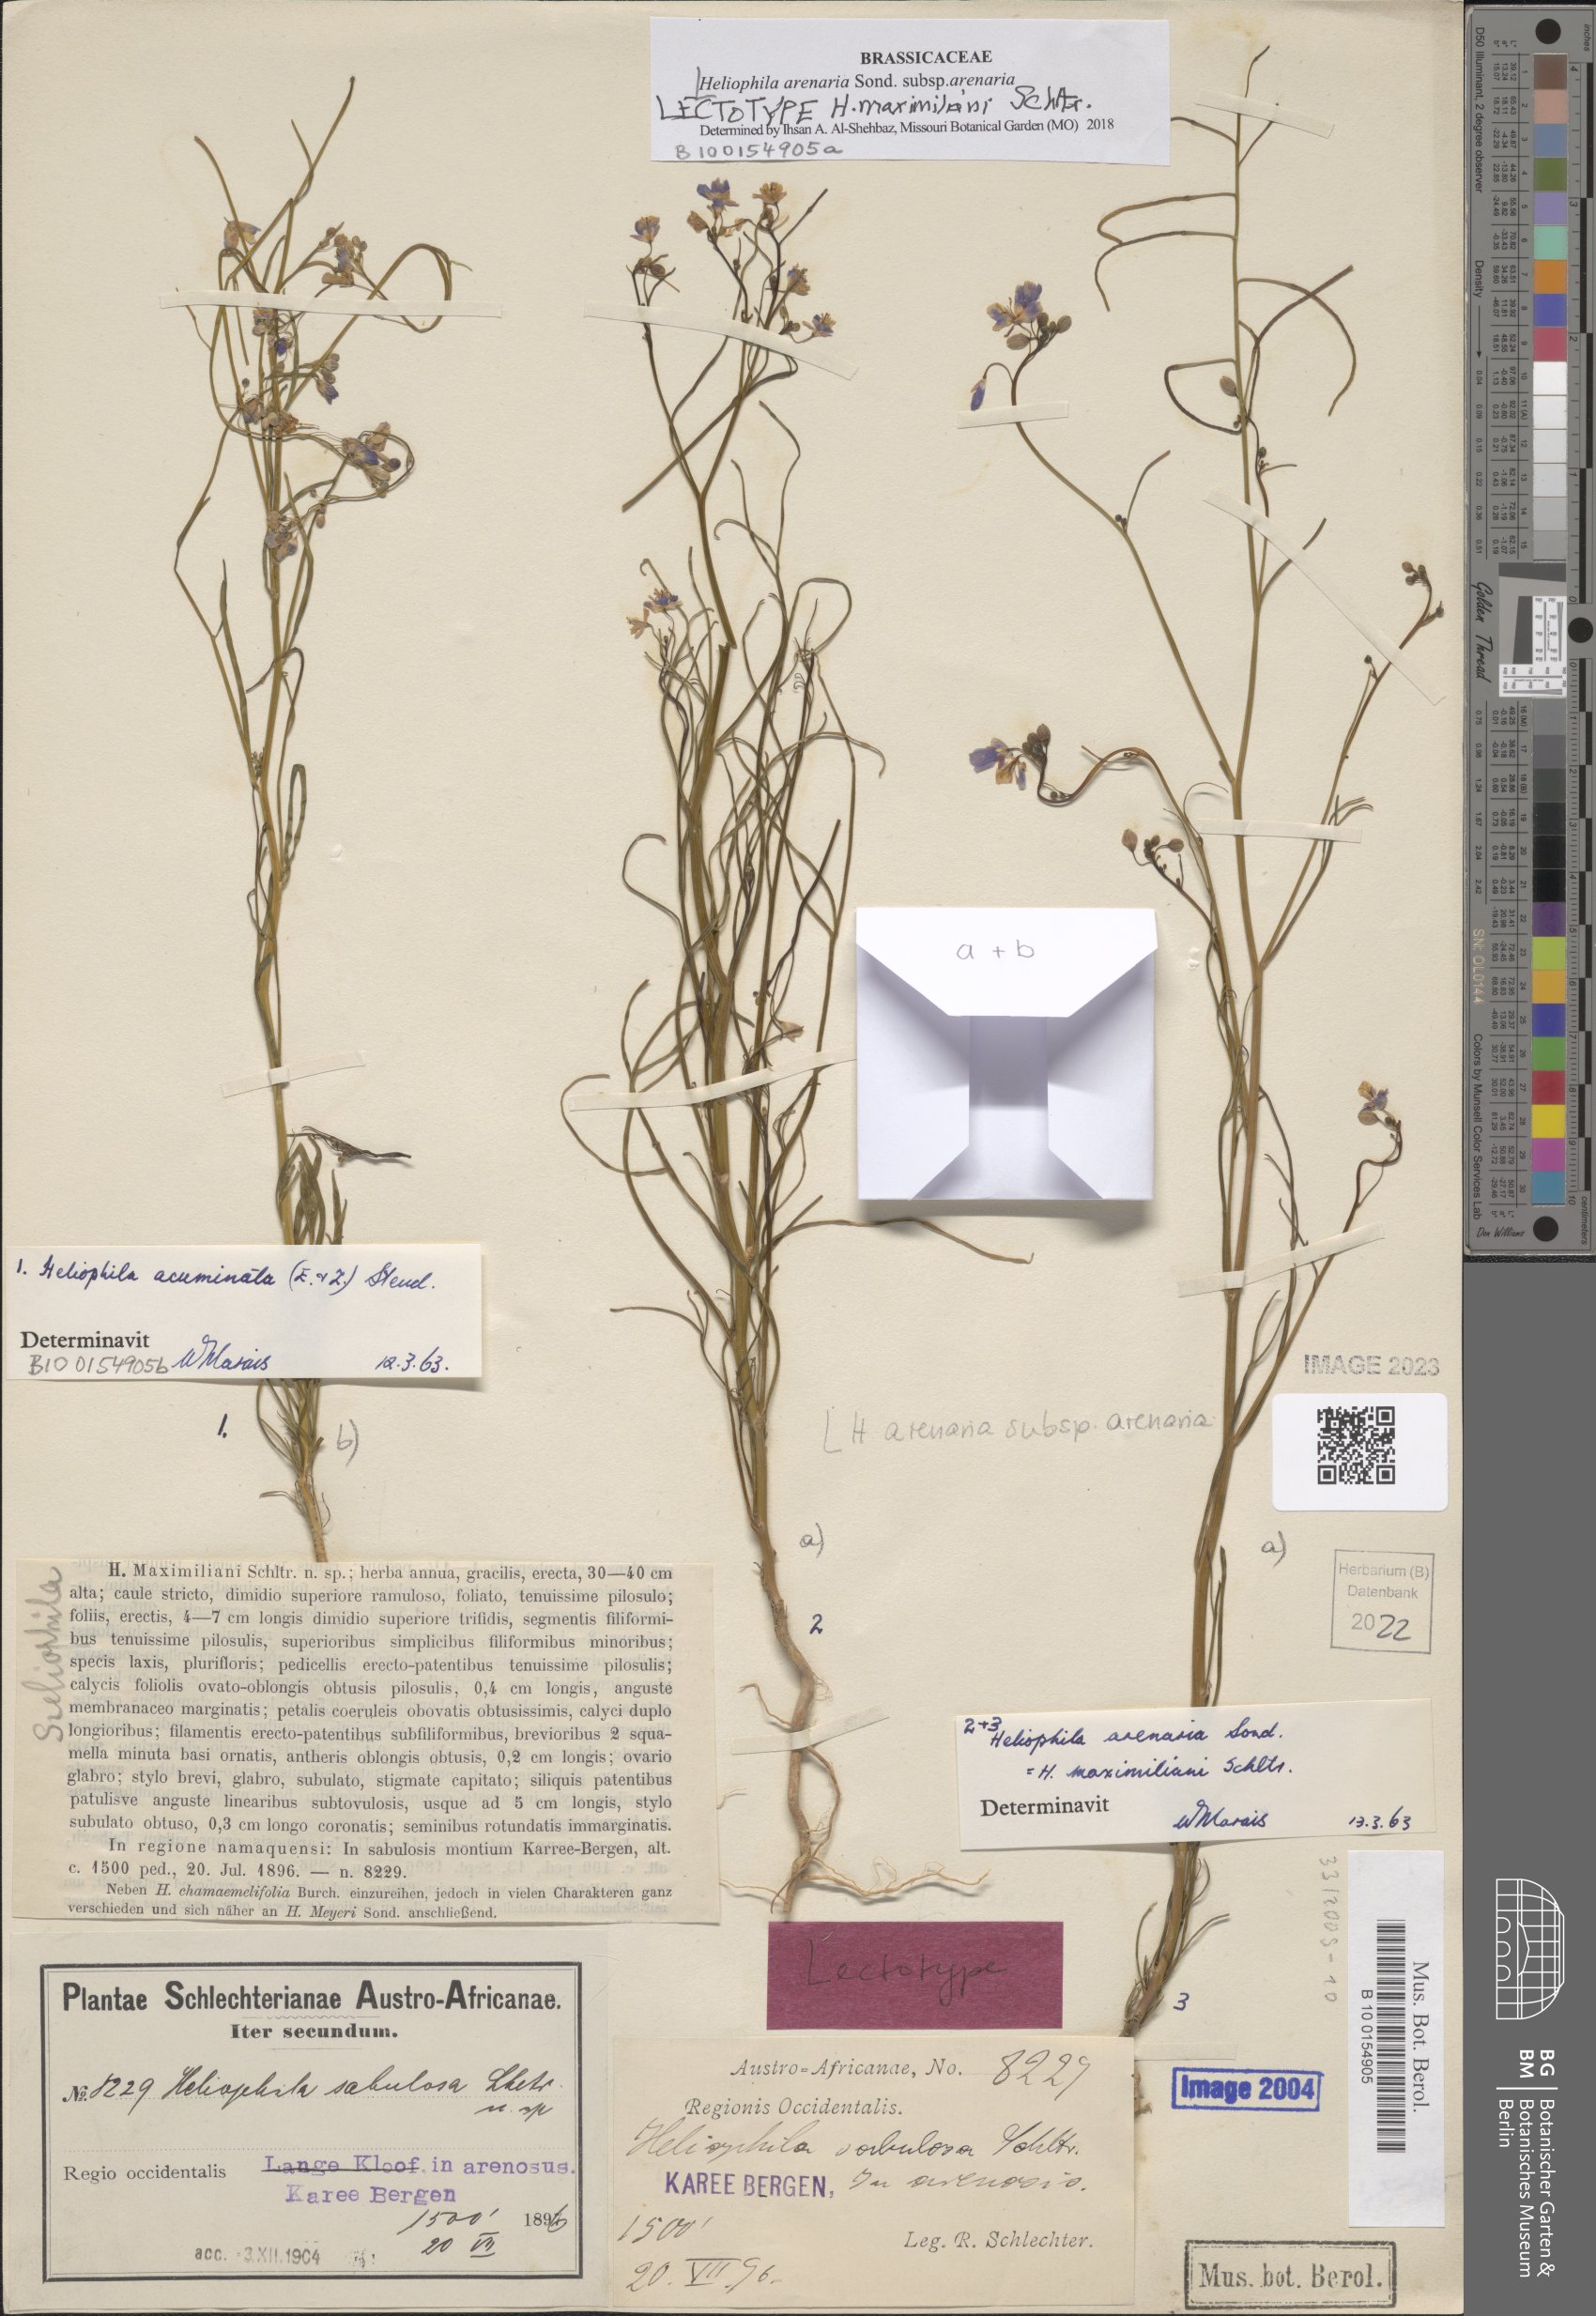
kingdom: Plantae
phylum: Tracheophyta
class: Magnoliopsida
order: Brassicales
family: Brassicaceae
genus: Heliophila
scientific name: Heliophila acuminata
